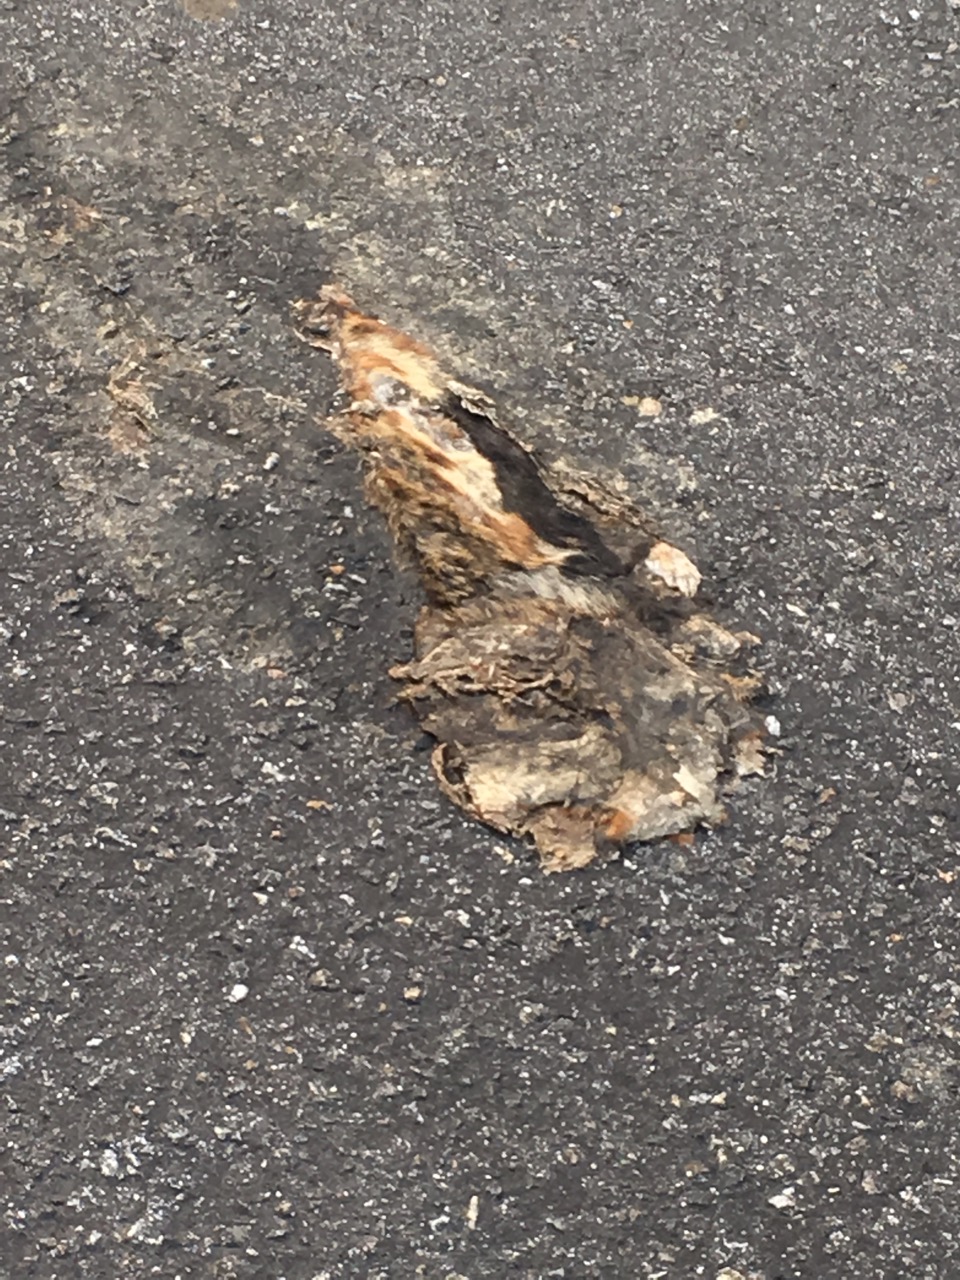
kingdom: Animalia
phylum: Chordata
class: Mammalia
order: Rodentia
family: Cricetidae
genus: Cricetus
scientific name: Cricetus cricetus
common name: Common hamster
